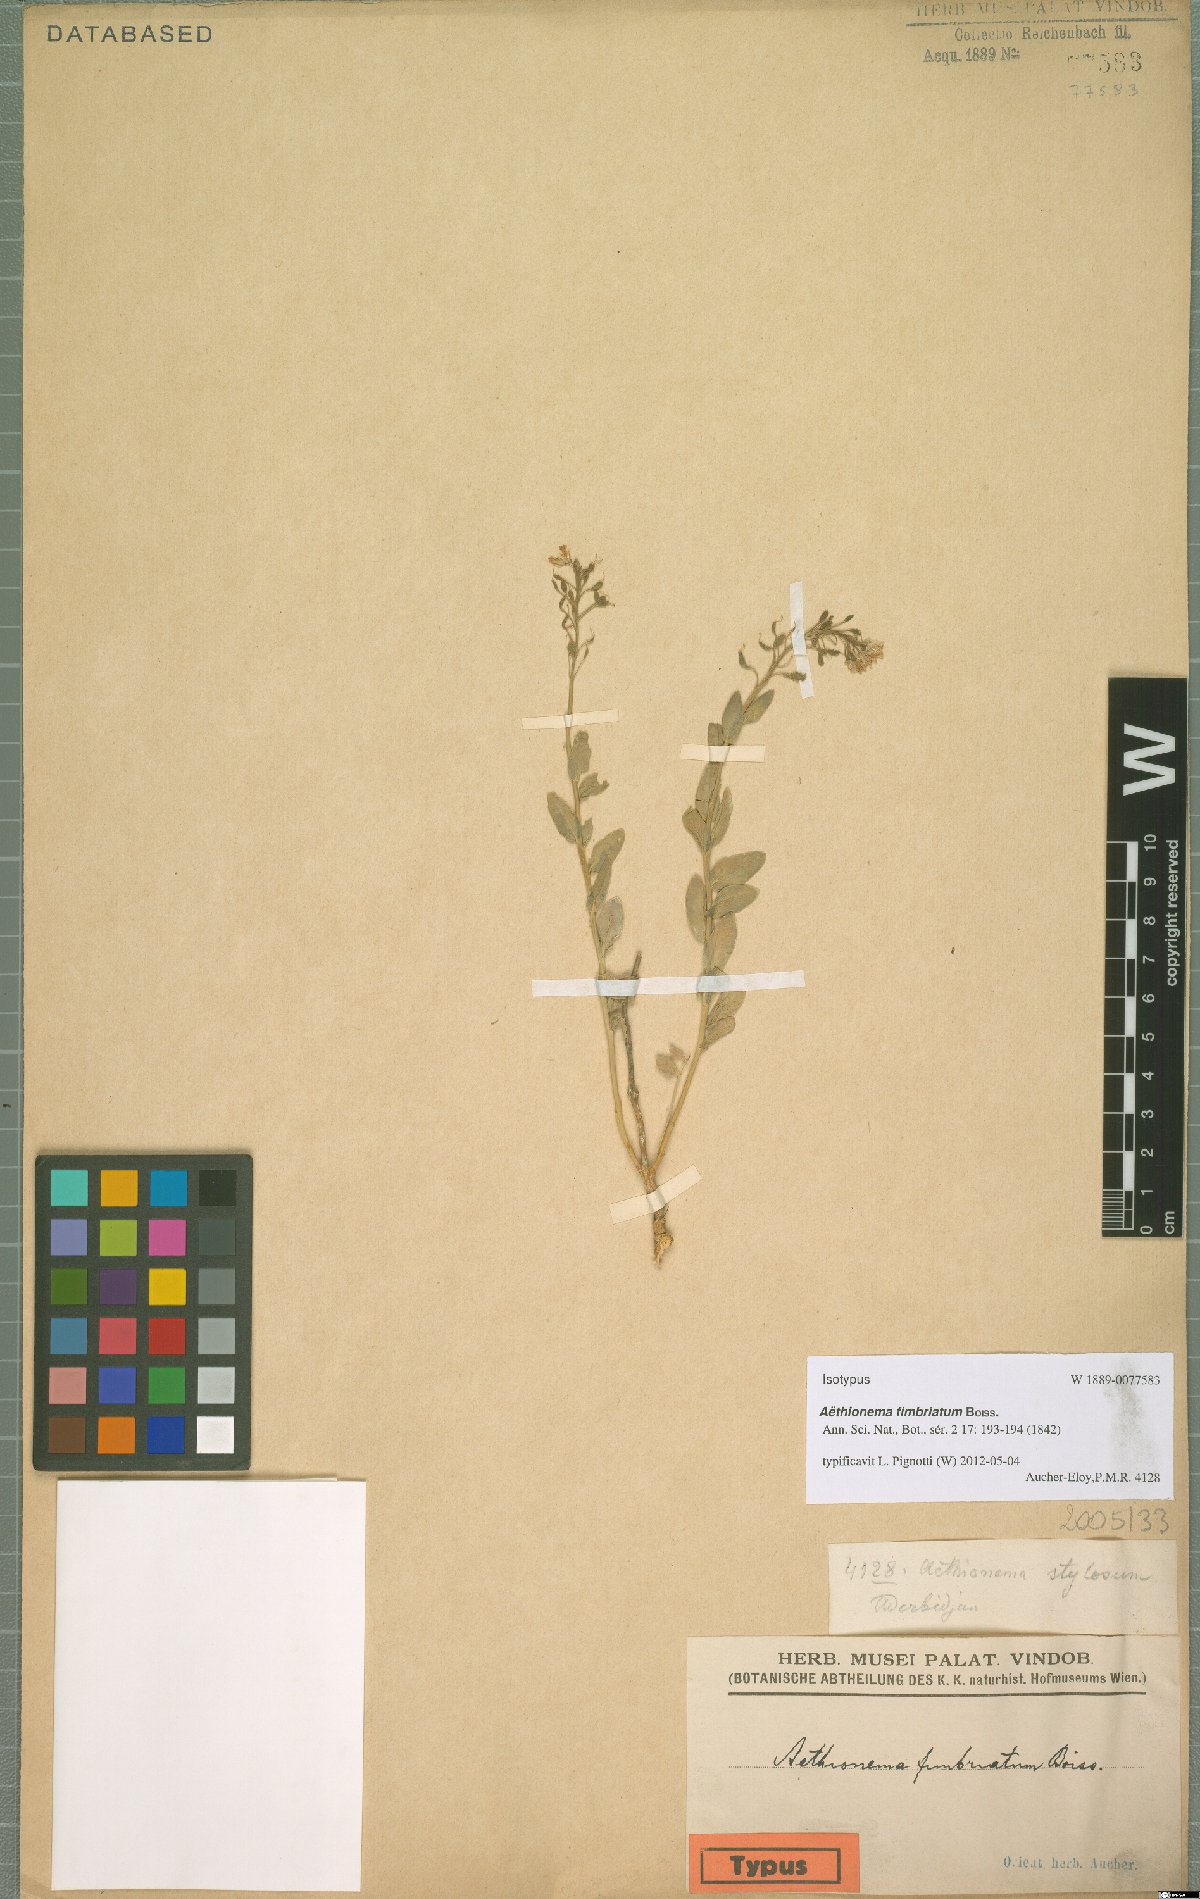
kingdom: Plantae
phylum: Tracheophyta
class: Magnoliopsida
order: Brassicales
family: Brassicaceae
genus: Aethionema
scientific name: Aethionema fimbriatum
